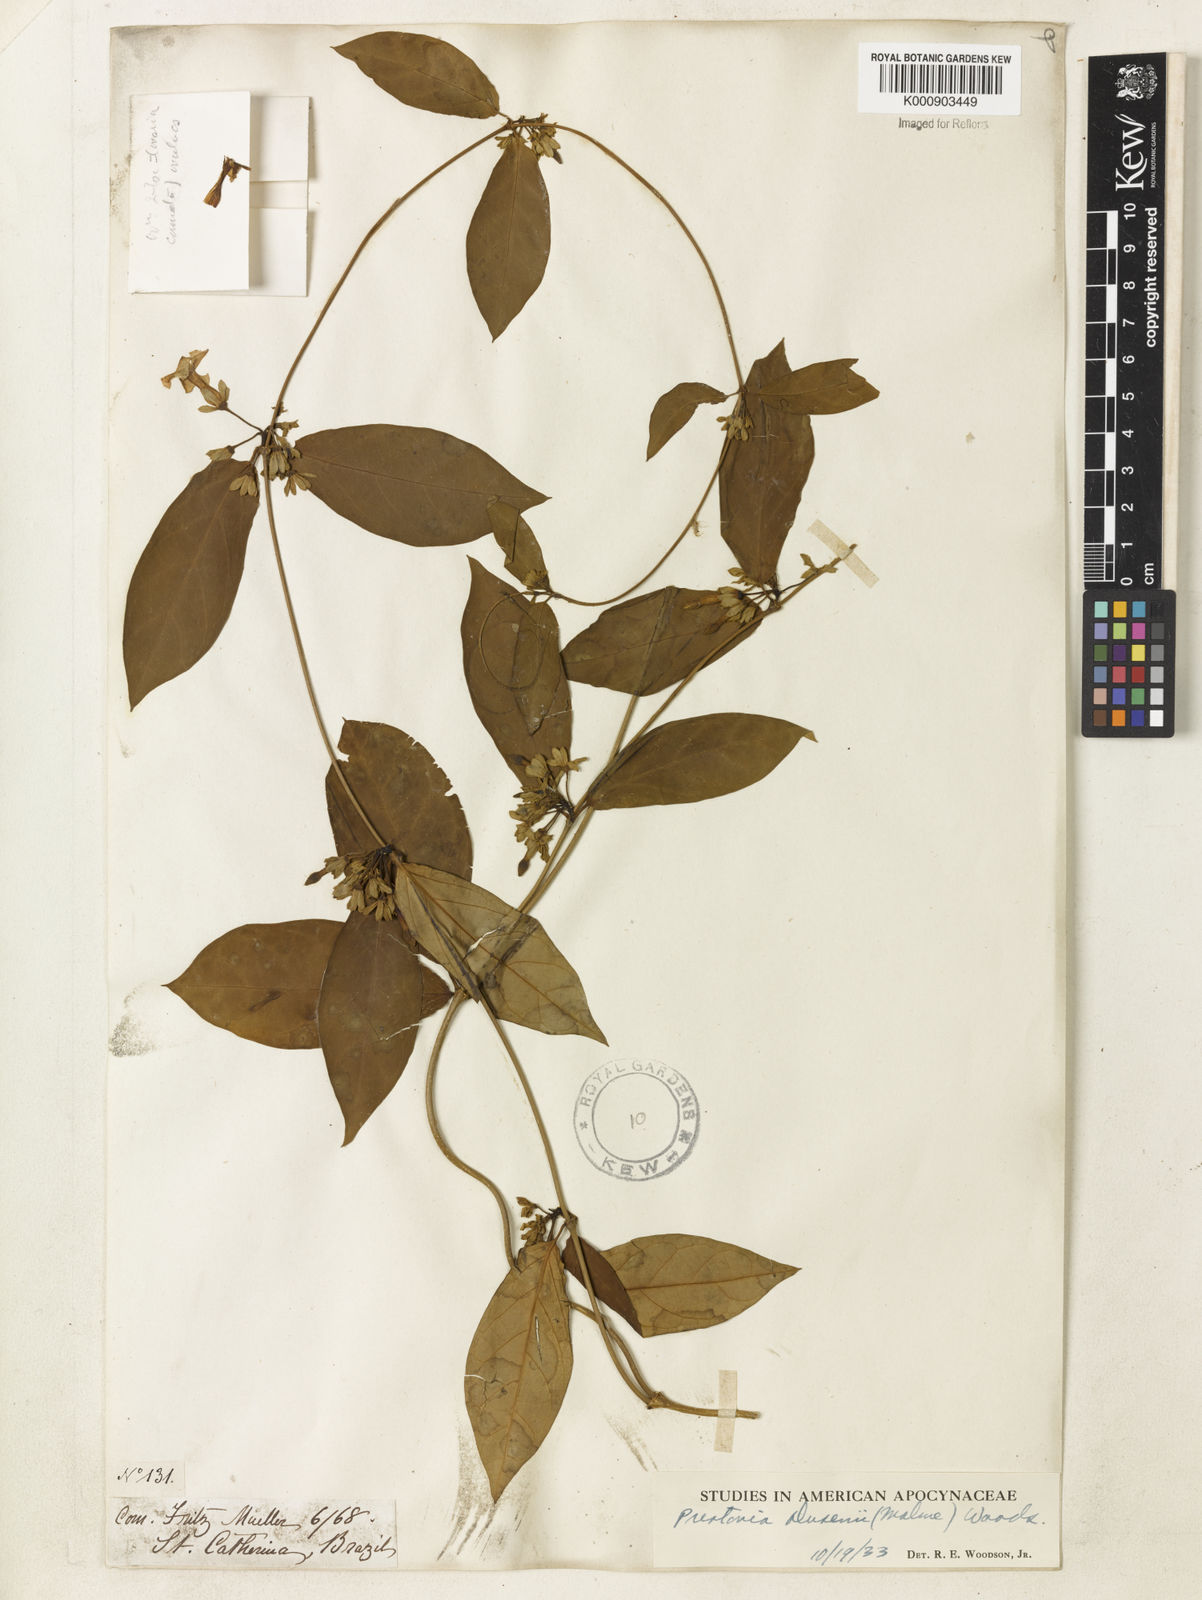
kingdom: Plantae
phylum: Tracheophyta
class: Magnoliopsida
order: Gentianales
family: Apocynaceae
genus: Prestonia
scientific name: Prestonia dusenii
